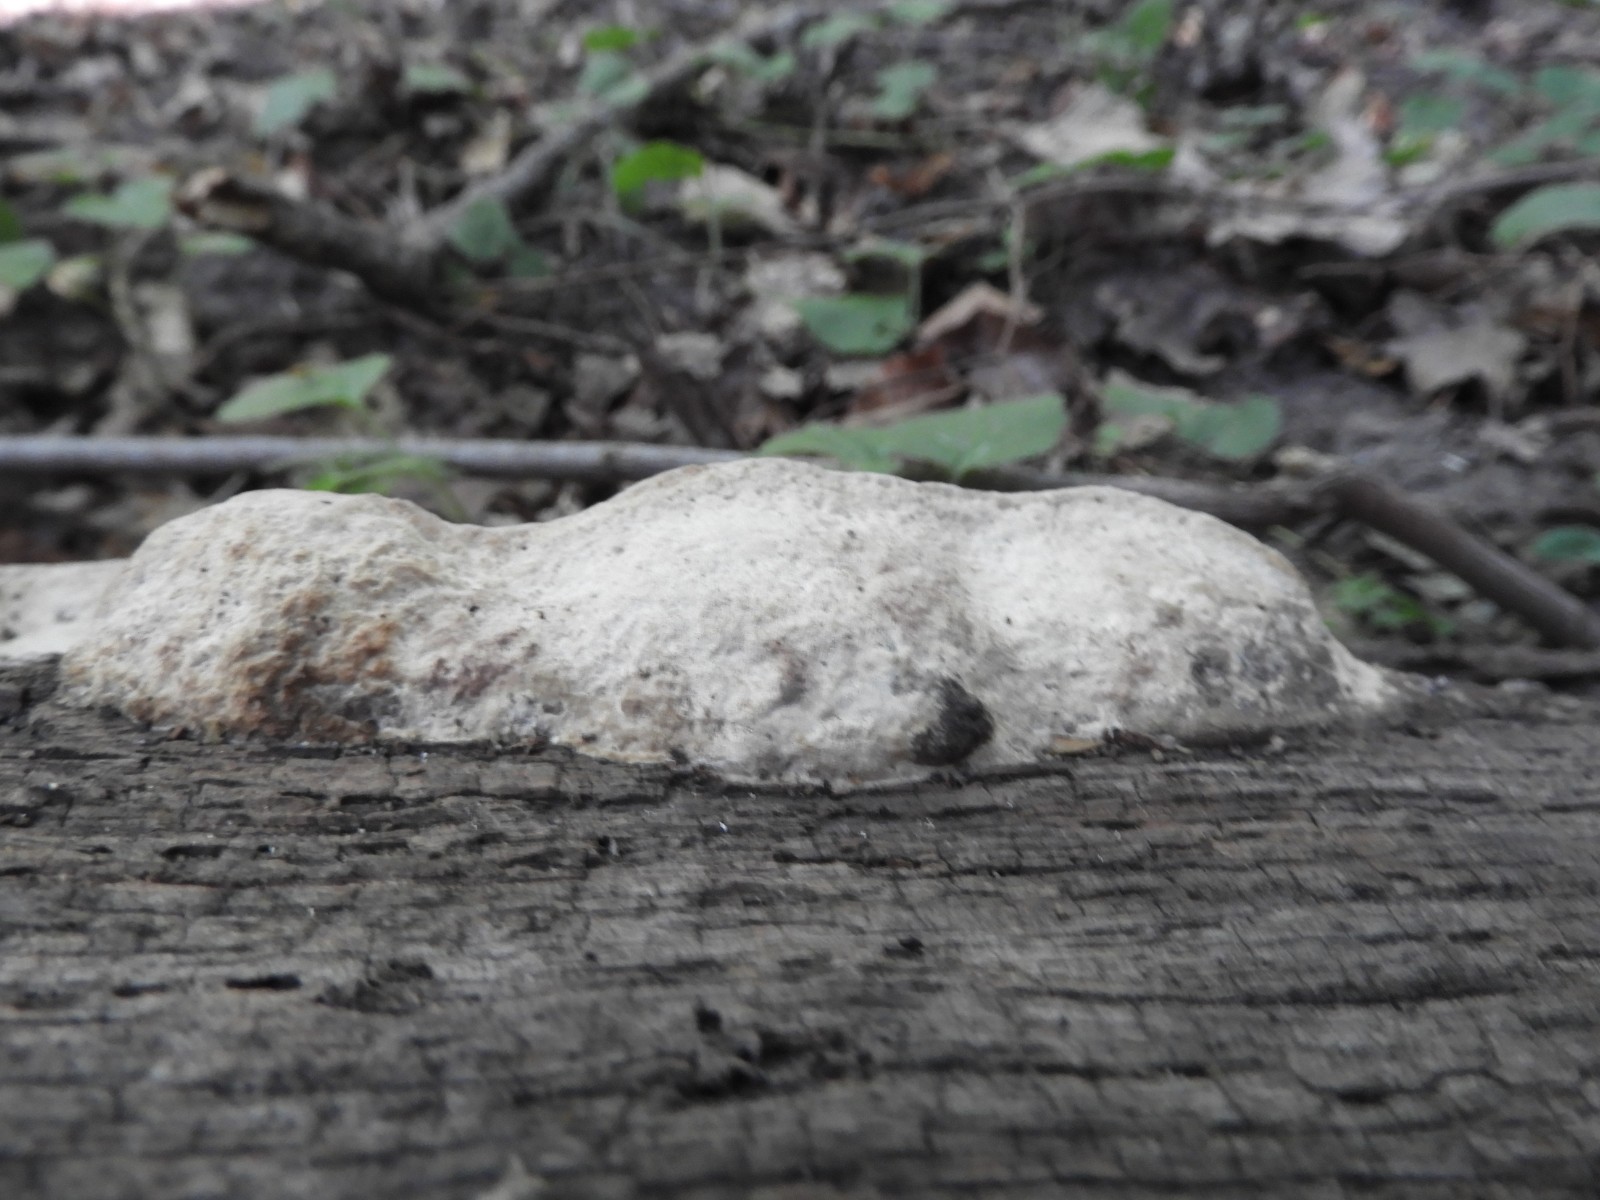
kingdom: Fungi
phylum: Basidiomycota
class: Agaricomycetes
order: Polyporales
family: Fomitopsidaceae
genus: Daedalea
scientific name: Daedalea quercina
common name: ege-labyrintsvamp
